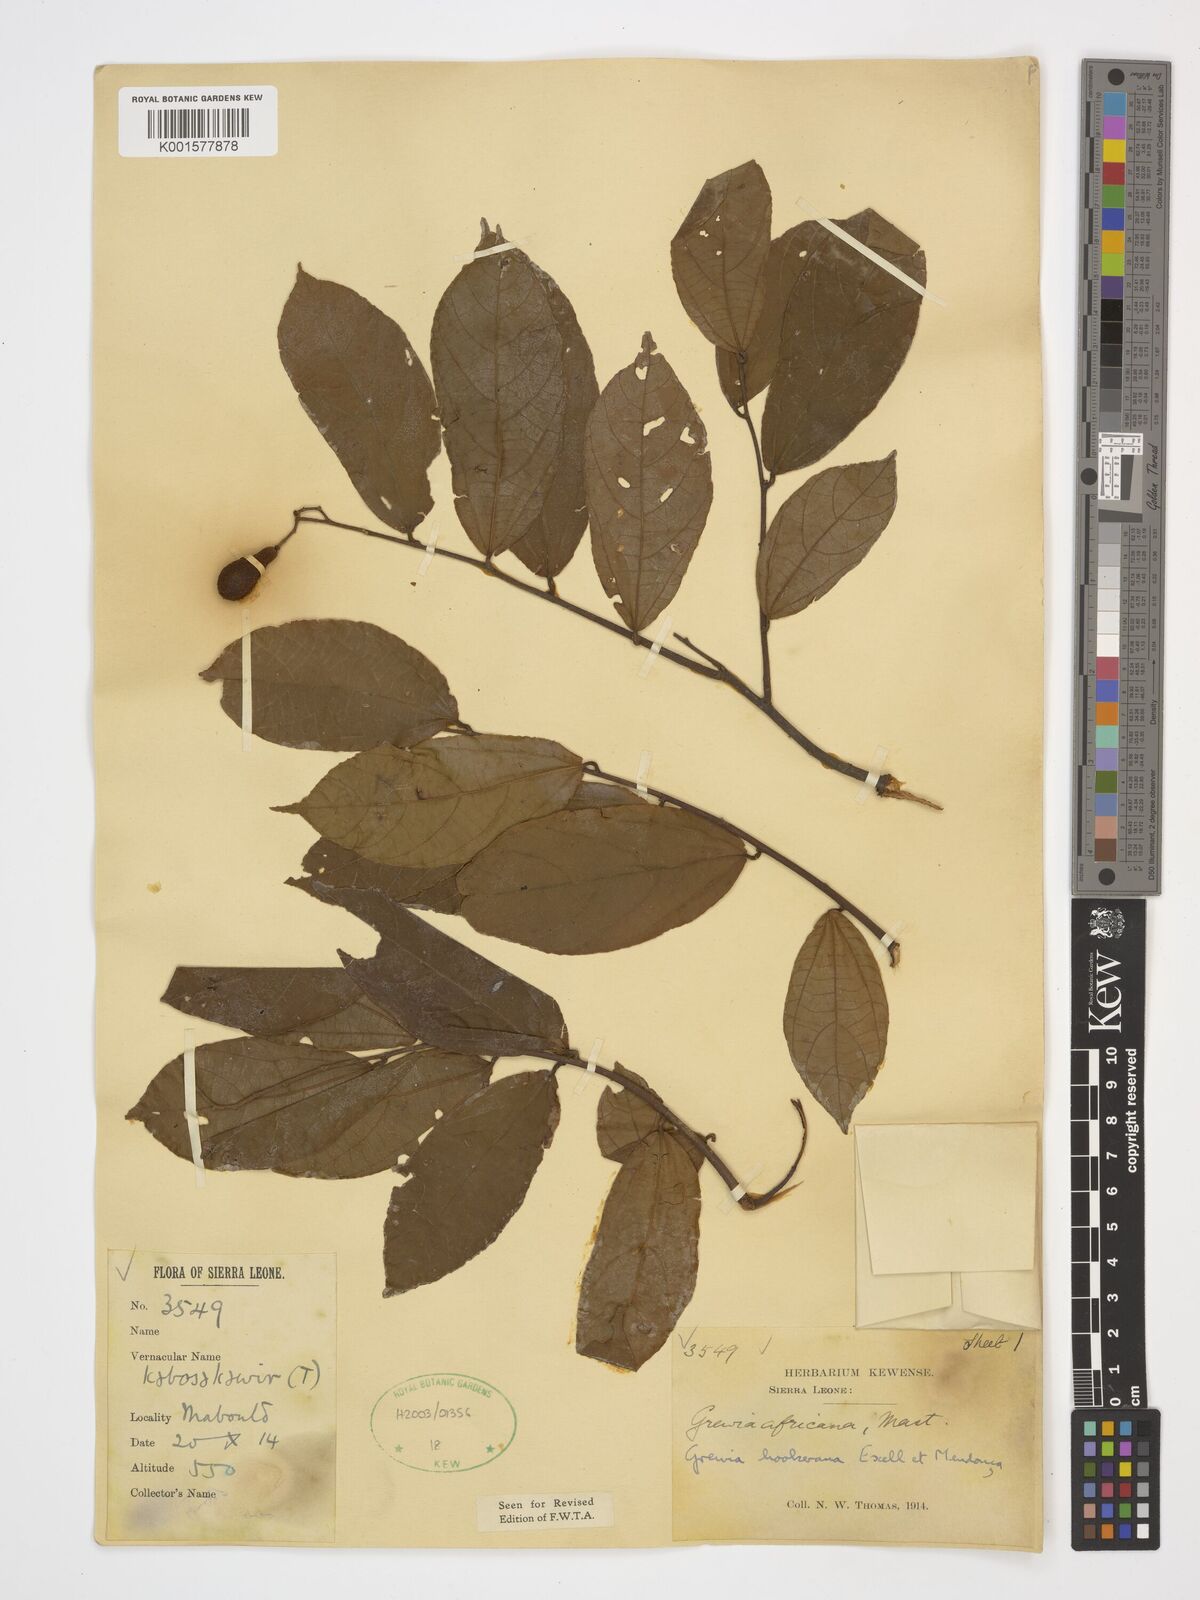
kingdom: Plantae
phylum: Tracheophyta
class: Magnoliopsida
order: Malvales
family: Malvaceae
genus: Microcos
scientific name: Microcos africana
